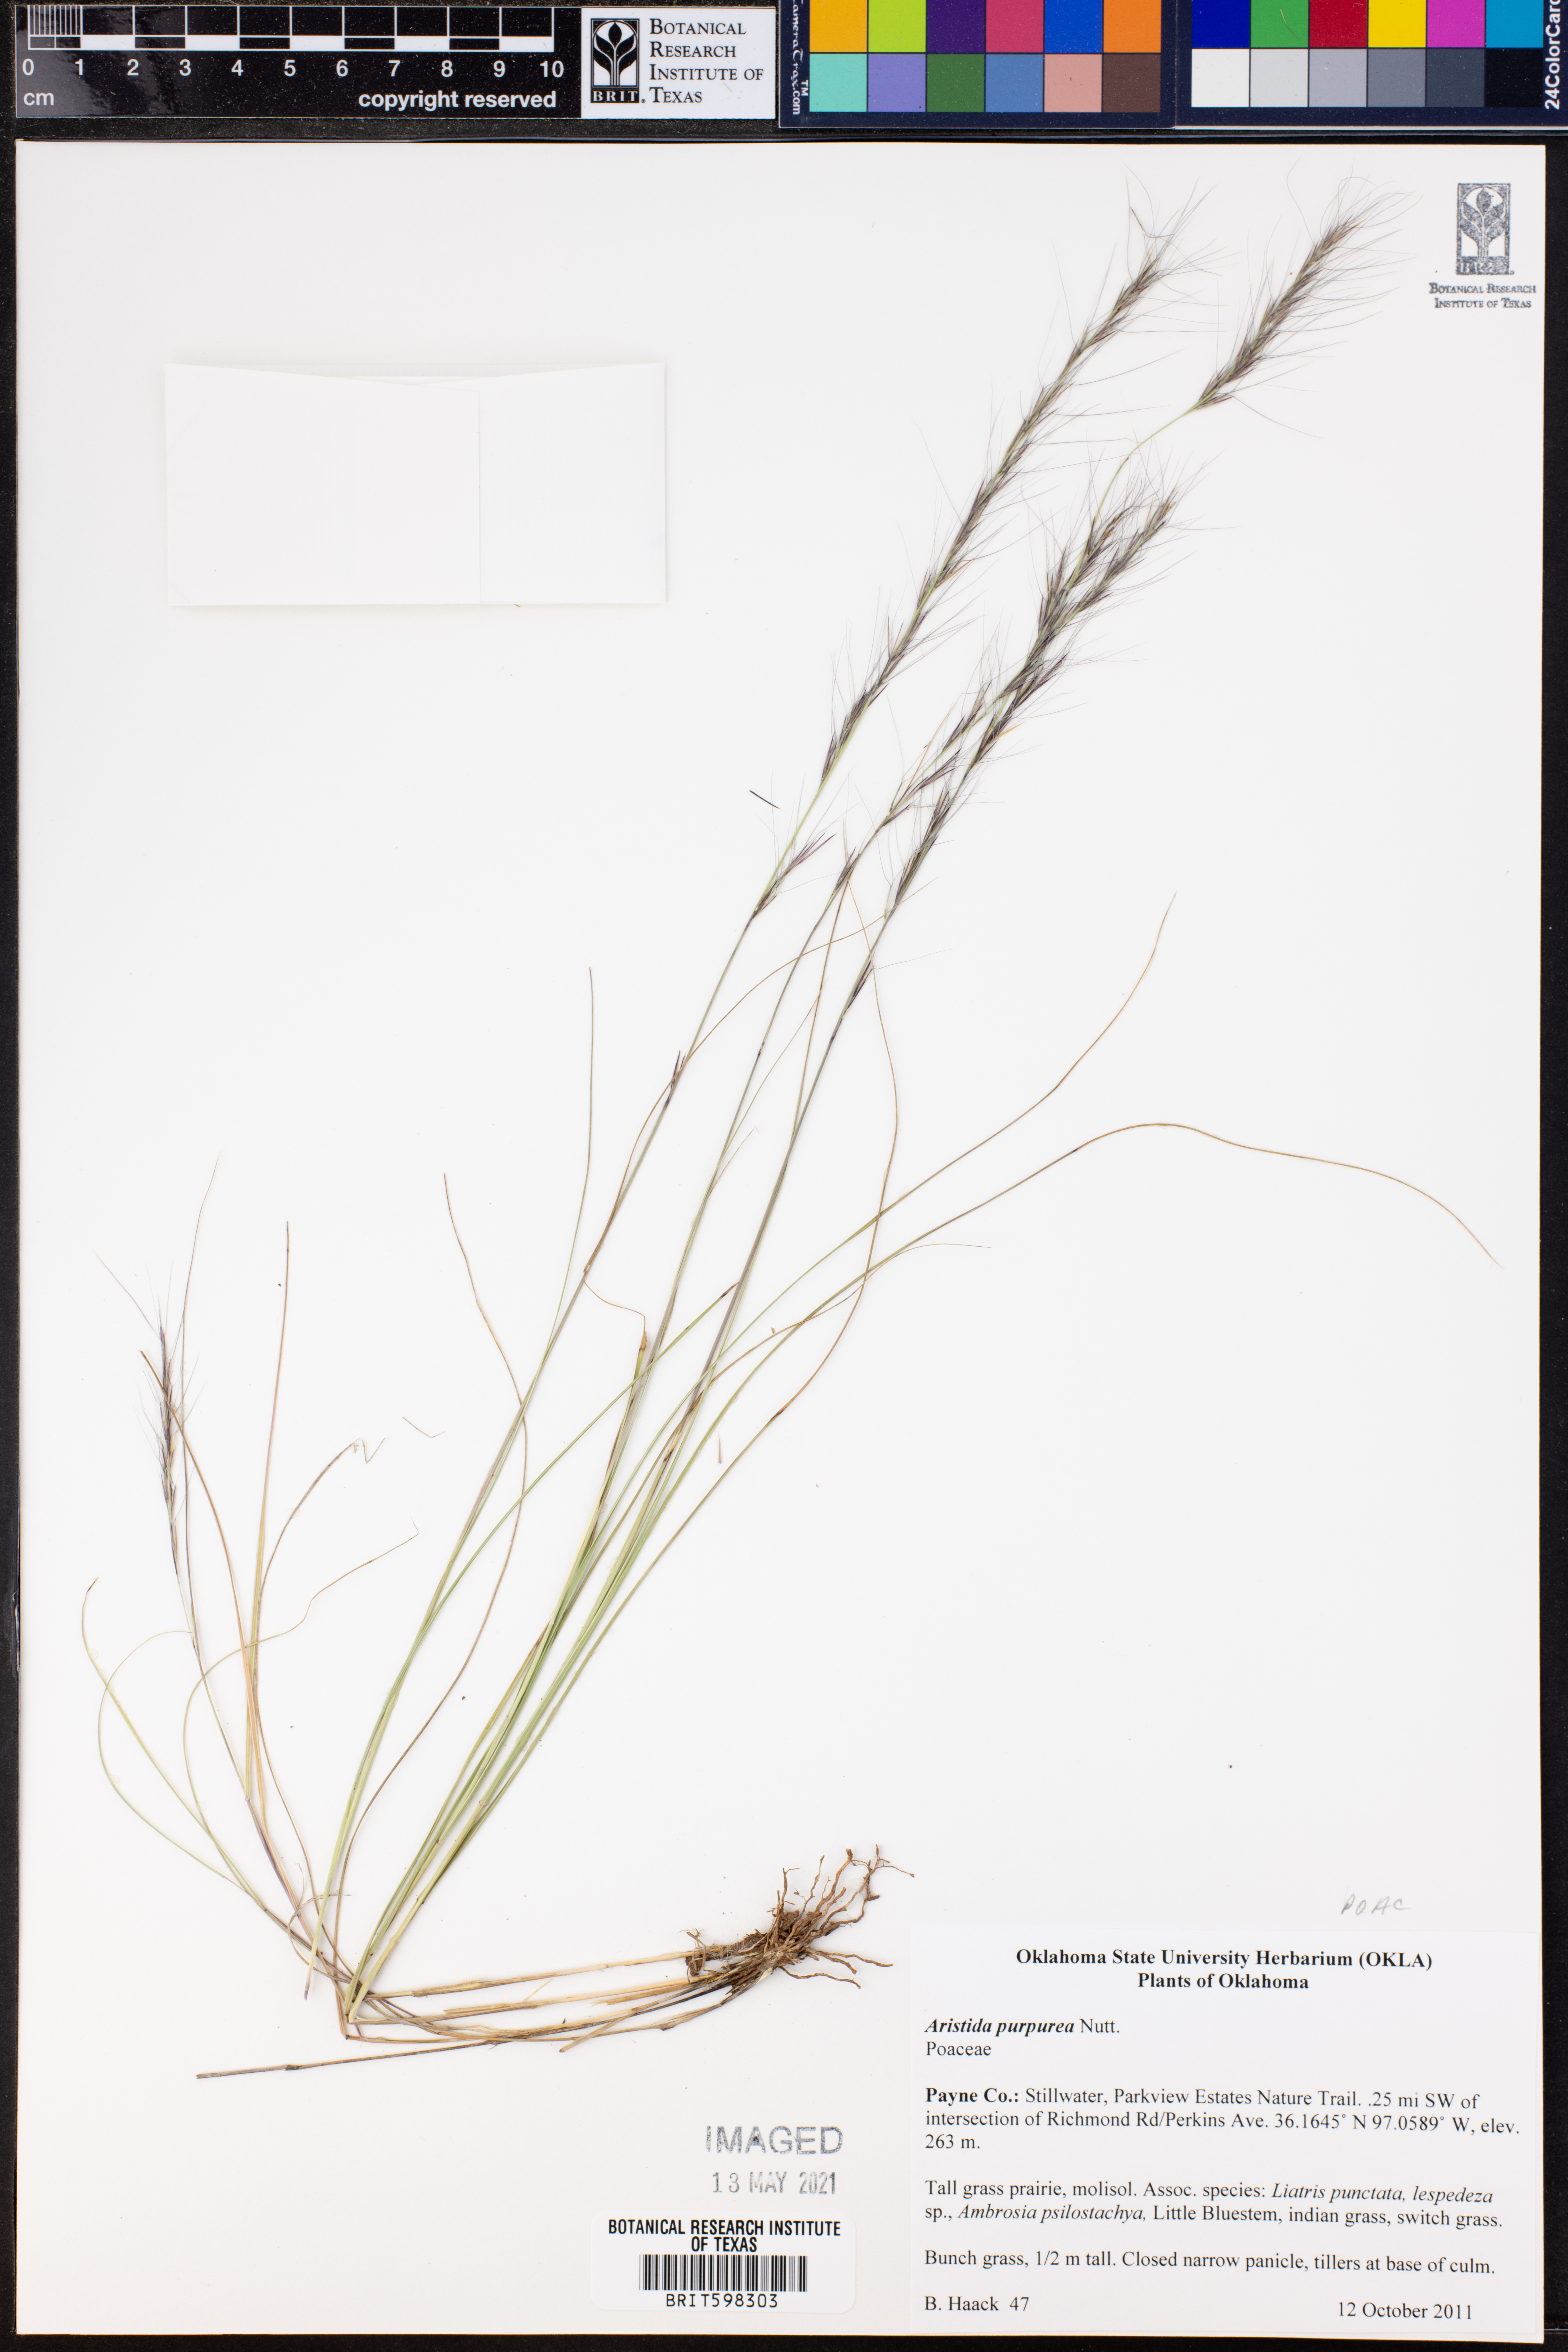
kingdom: Plantae
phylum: Tracheophyta
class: Liliopsida
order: Poales
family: Poaceae
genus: Aristida
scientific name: Aristida purpurea
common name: Purple threeawn
